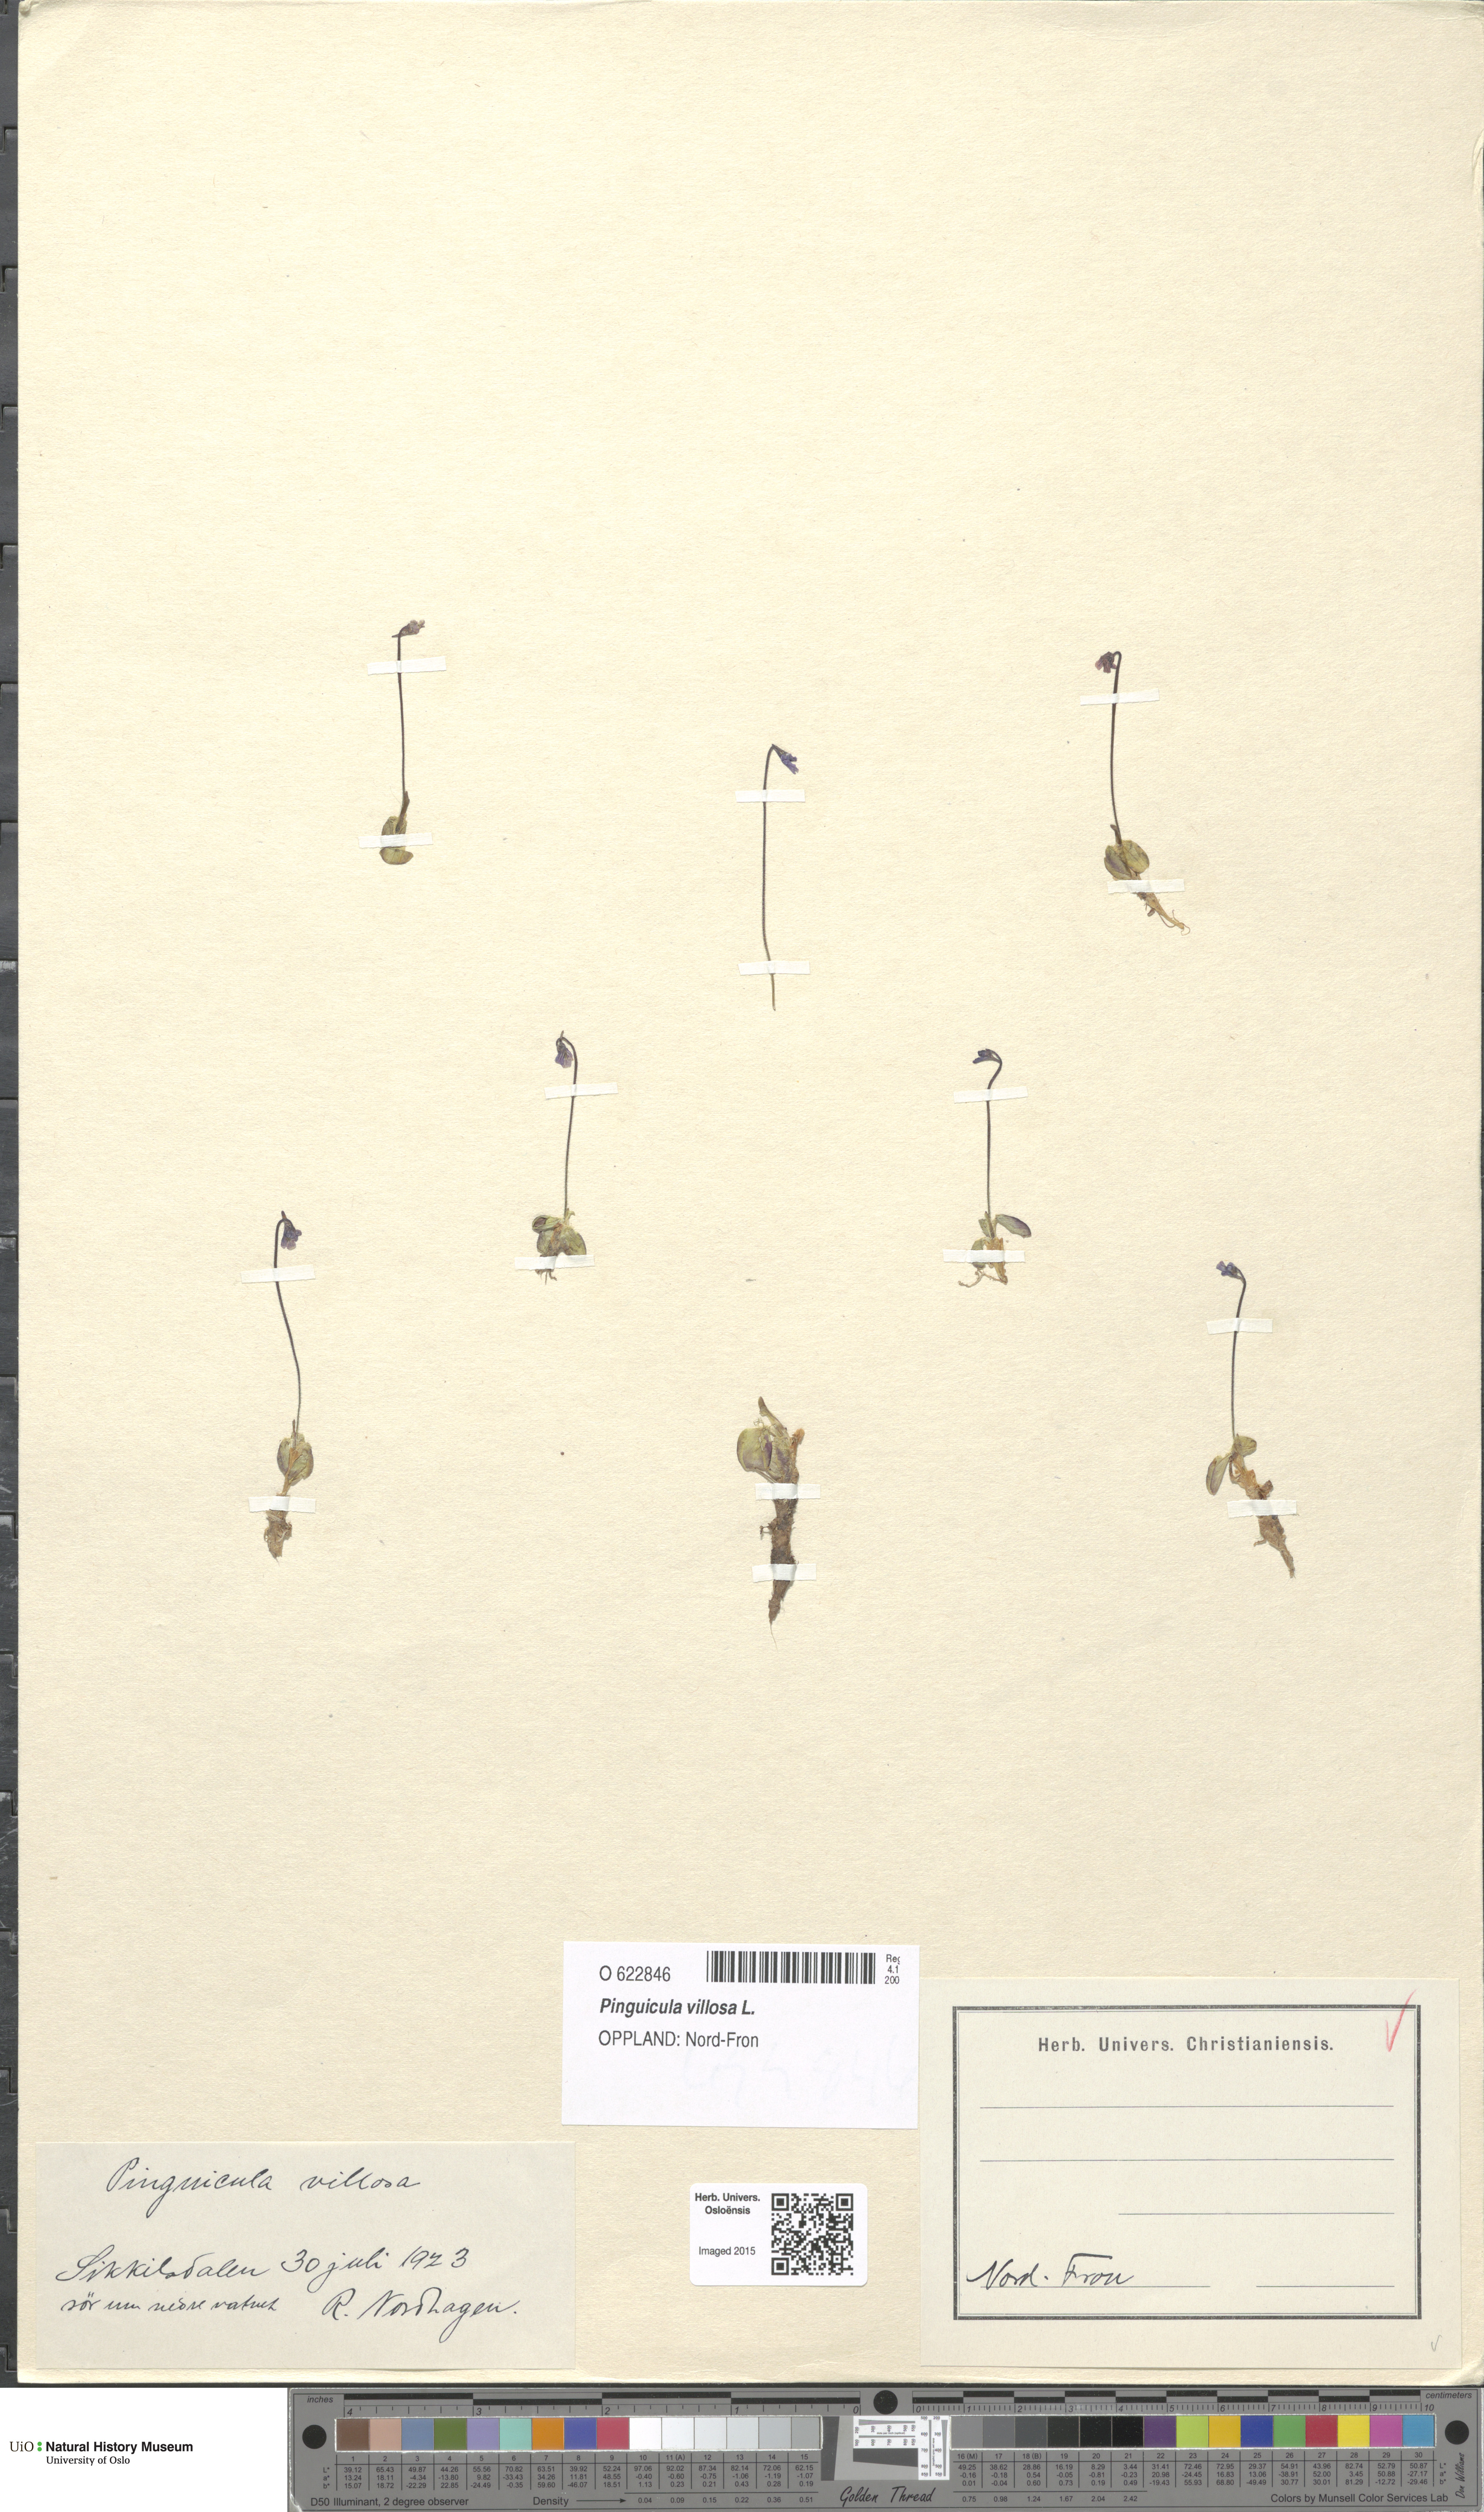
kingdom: Plantae
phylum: Tracheophyta
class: Magnoliopsida
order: Lamiales
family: Lentibulariaceae
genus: Pinguicula
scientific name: Pinguicula villosa
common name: Hairy butterwort
